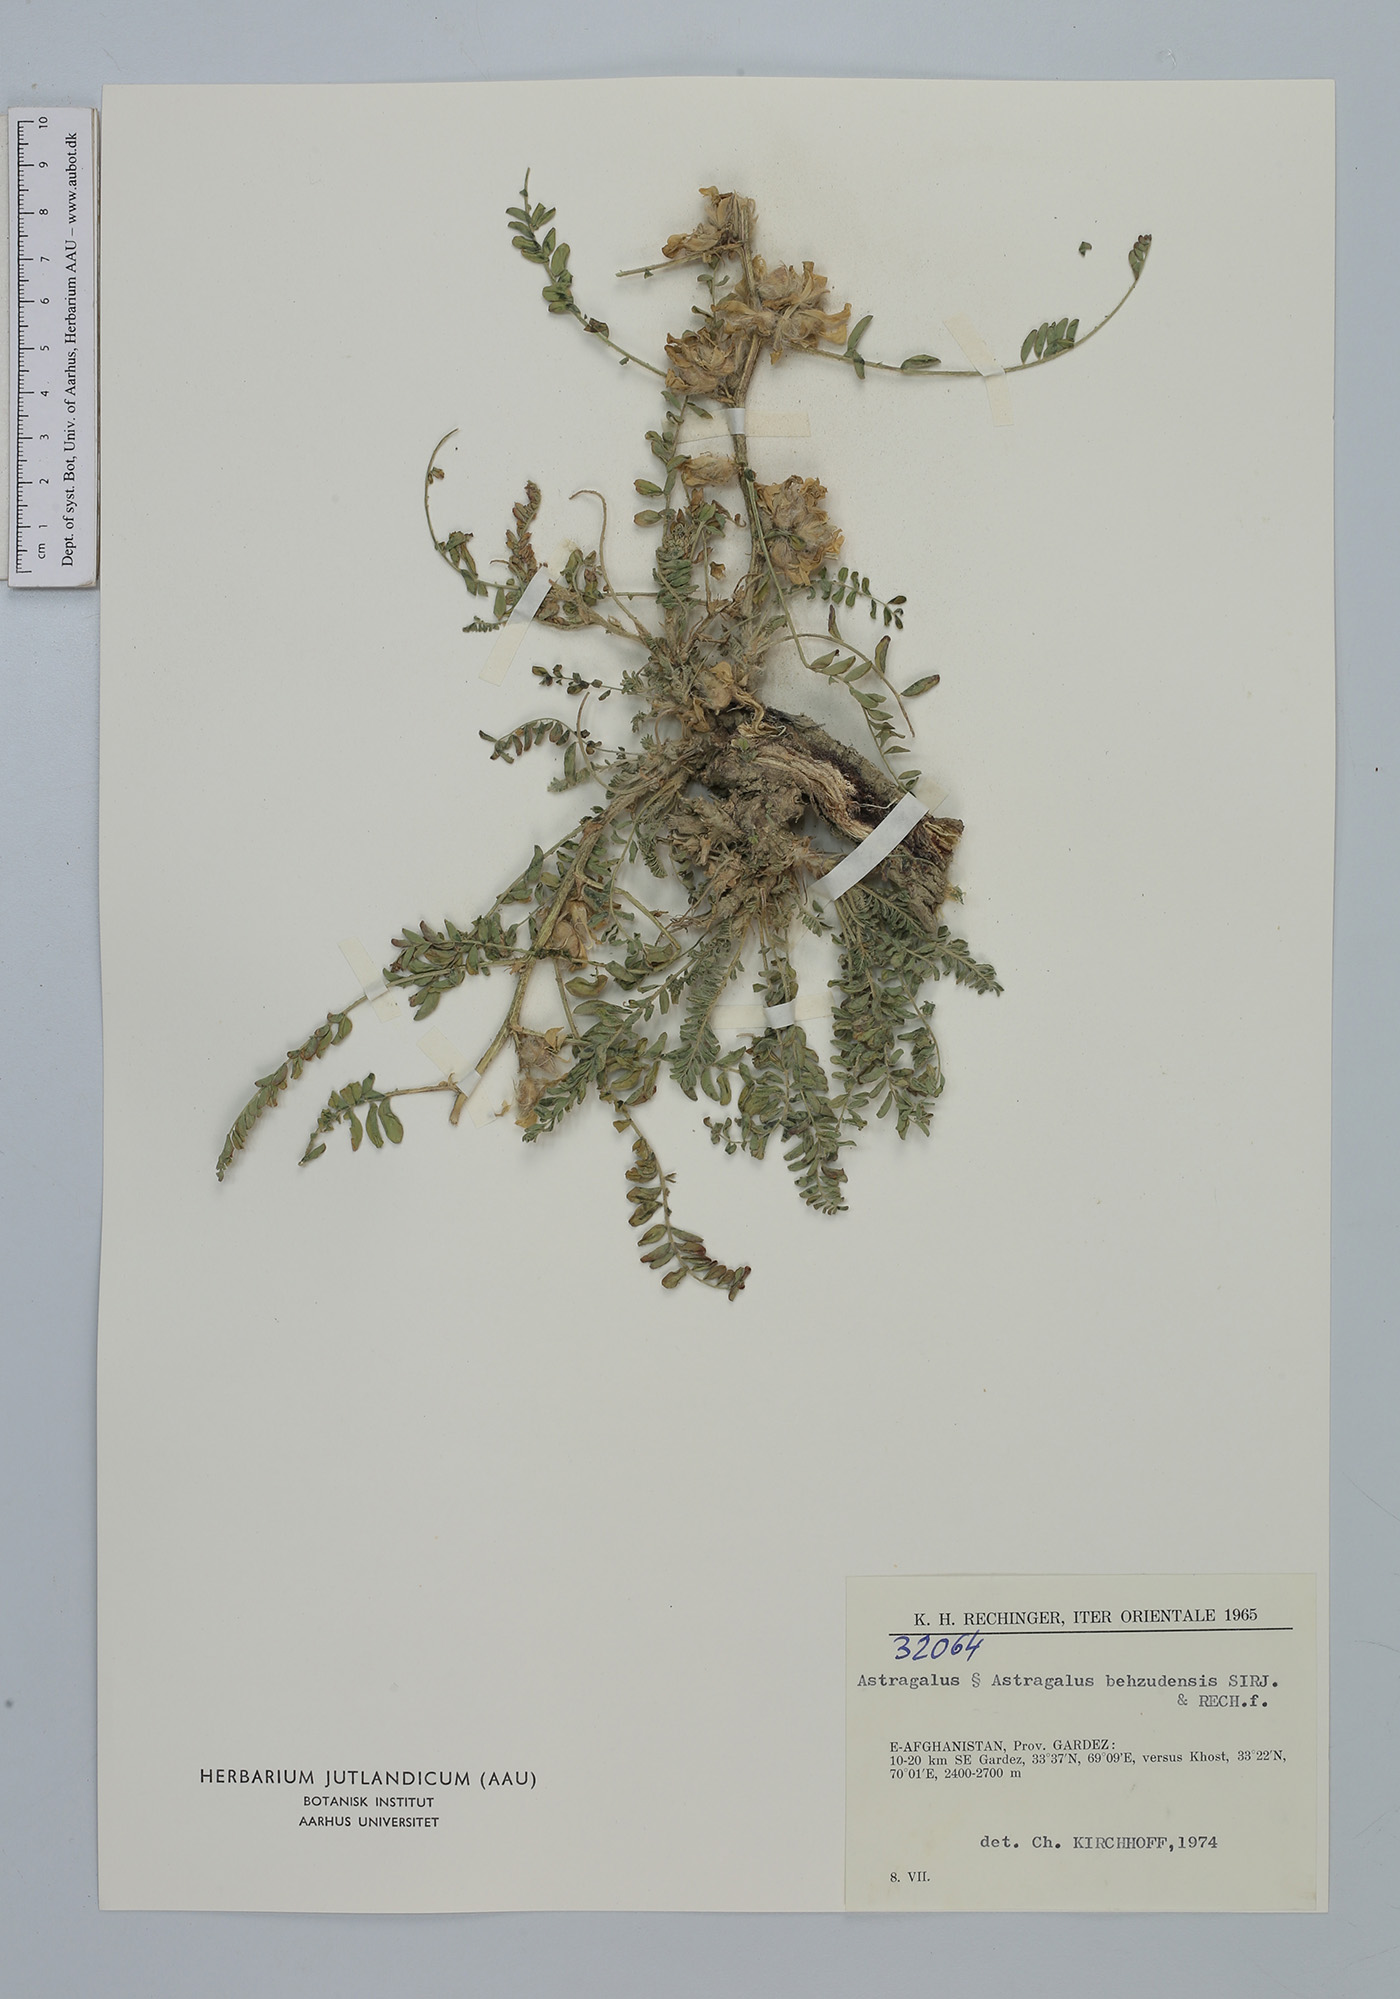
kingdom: Plantae
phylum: Tracheophyta
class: Magnoliopsida
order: Fabales
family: Fabaceae
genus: Astragalus
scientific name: Astragalus bezudensis
